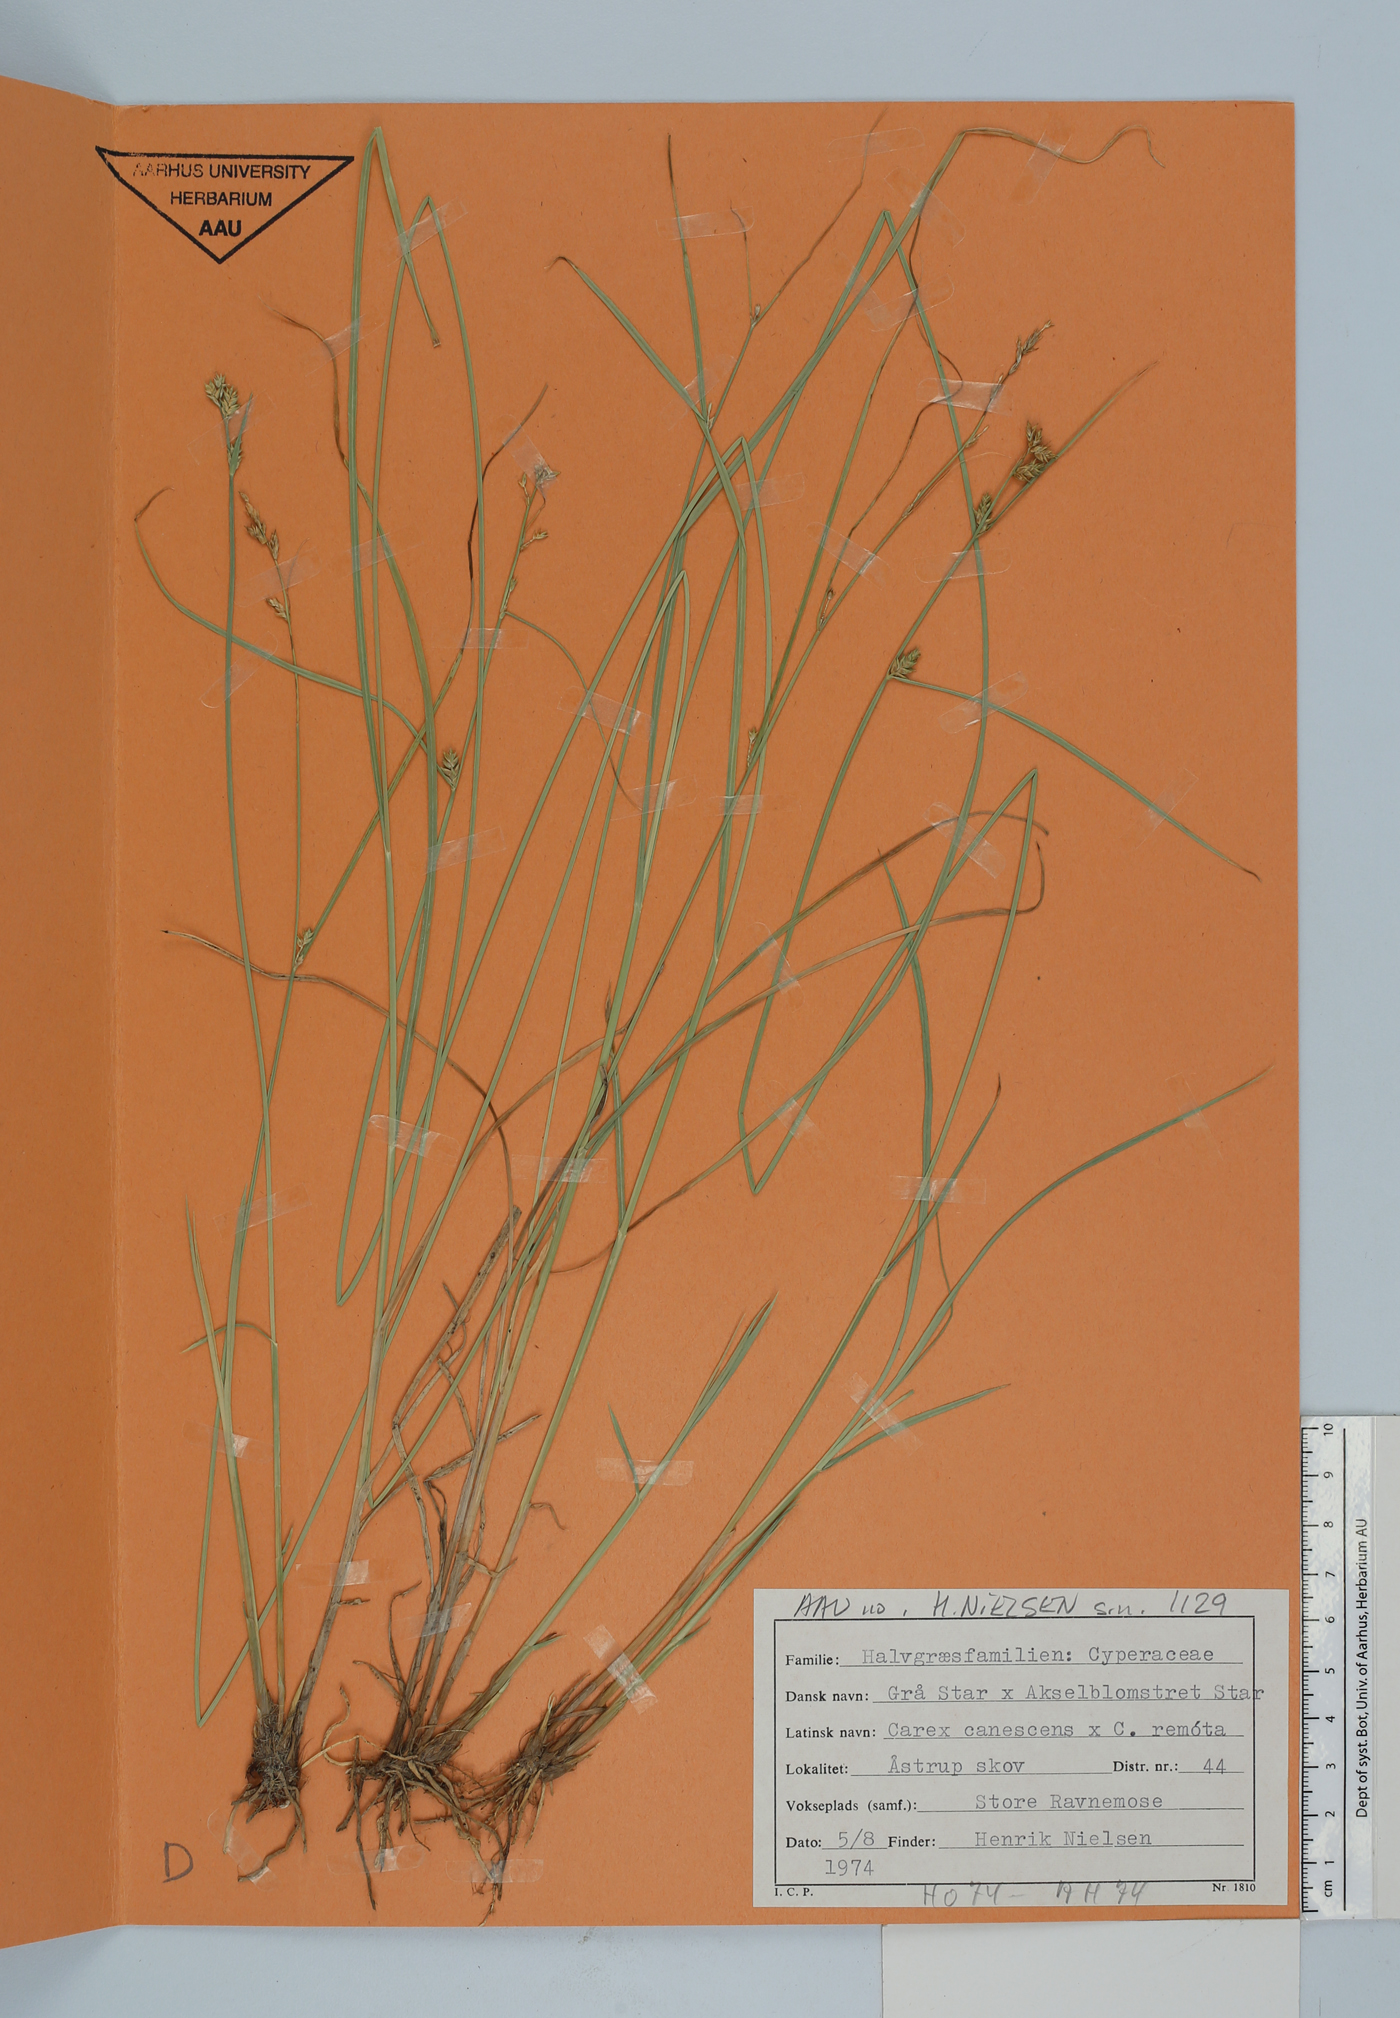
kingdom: Plantae
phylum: Tracheophyta
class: Liliopsida
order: Poales
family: Cyperaceae
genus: Carex
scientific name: Carex
